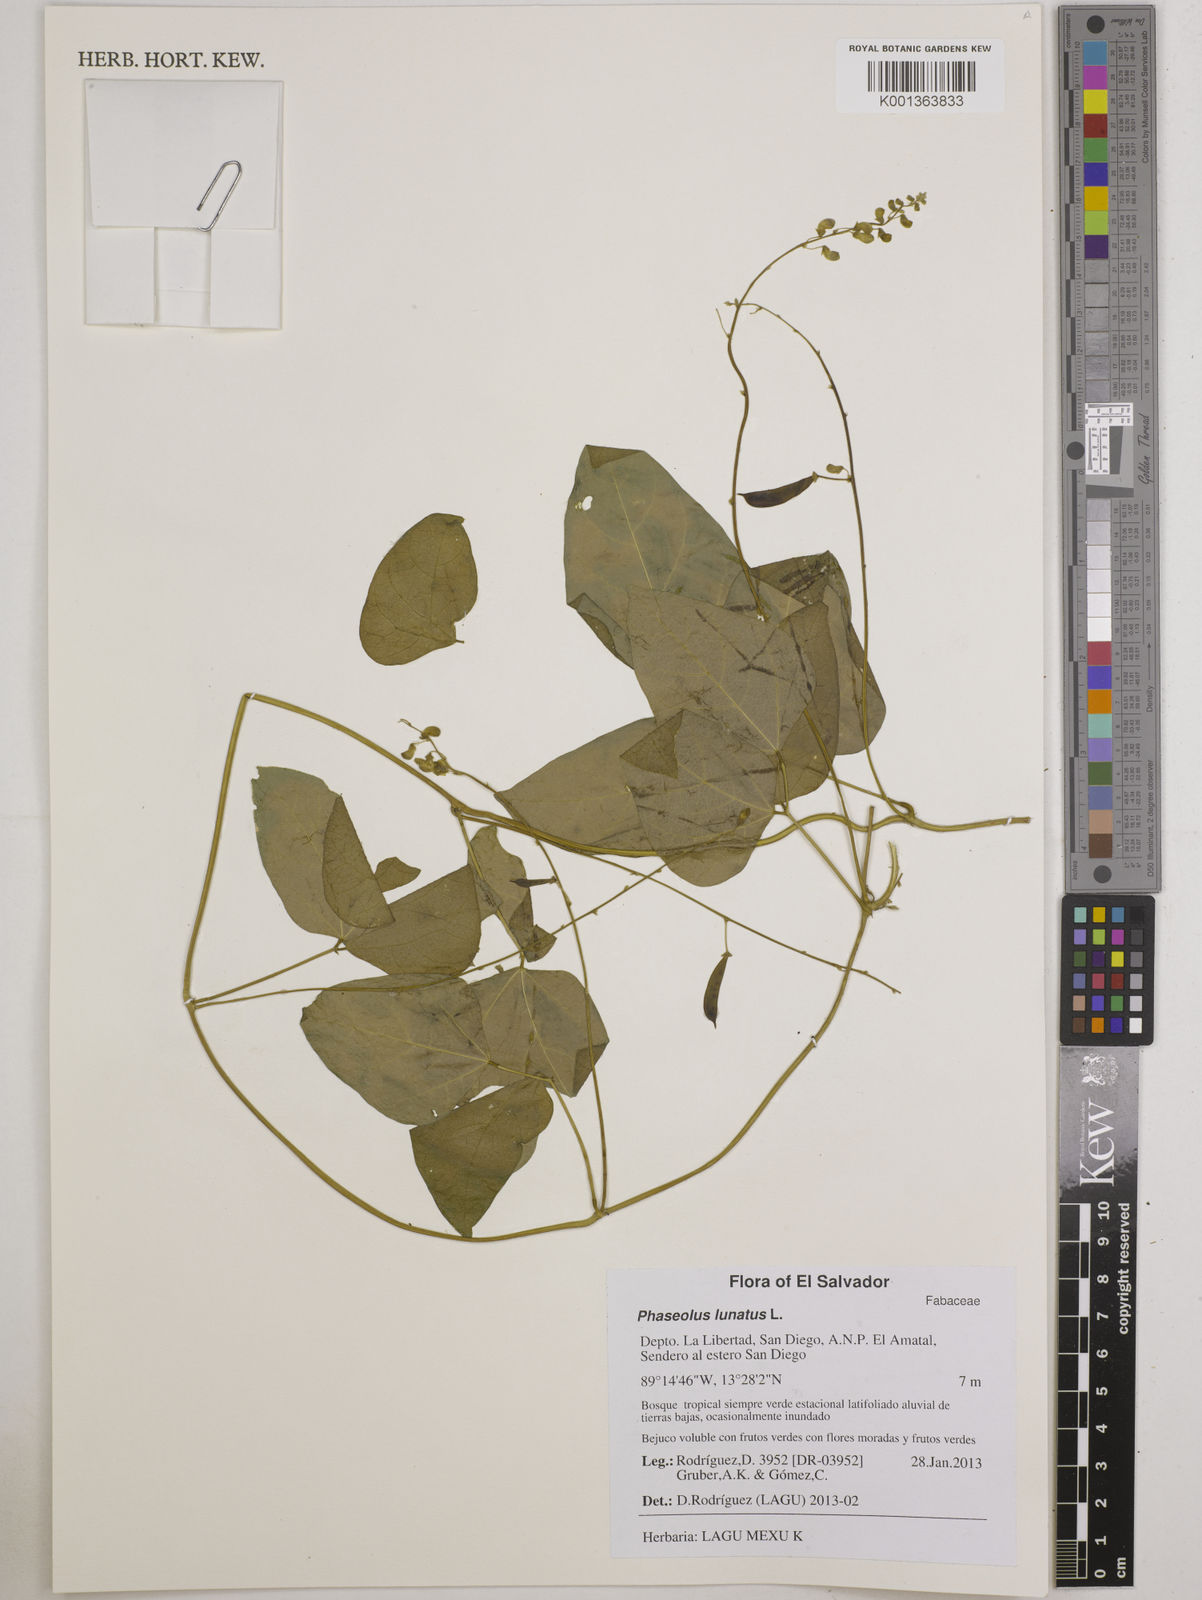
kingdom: Plantae
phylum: Tracheophyta
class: Magnoliopsida
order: Fabales
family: Fabaceae
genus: Phaseolus
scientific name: Phaseolus lunatus
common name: Sieva bean
